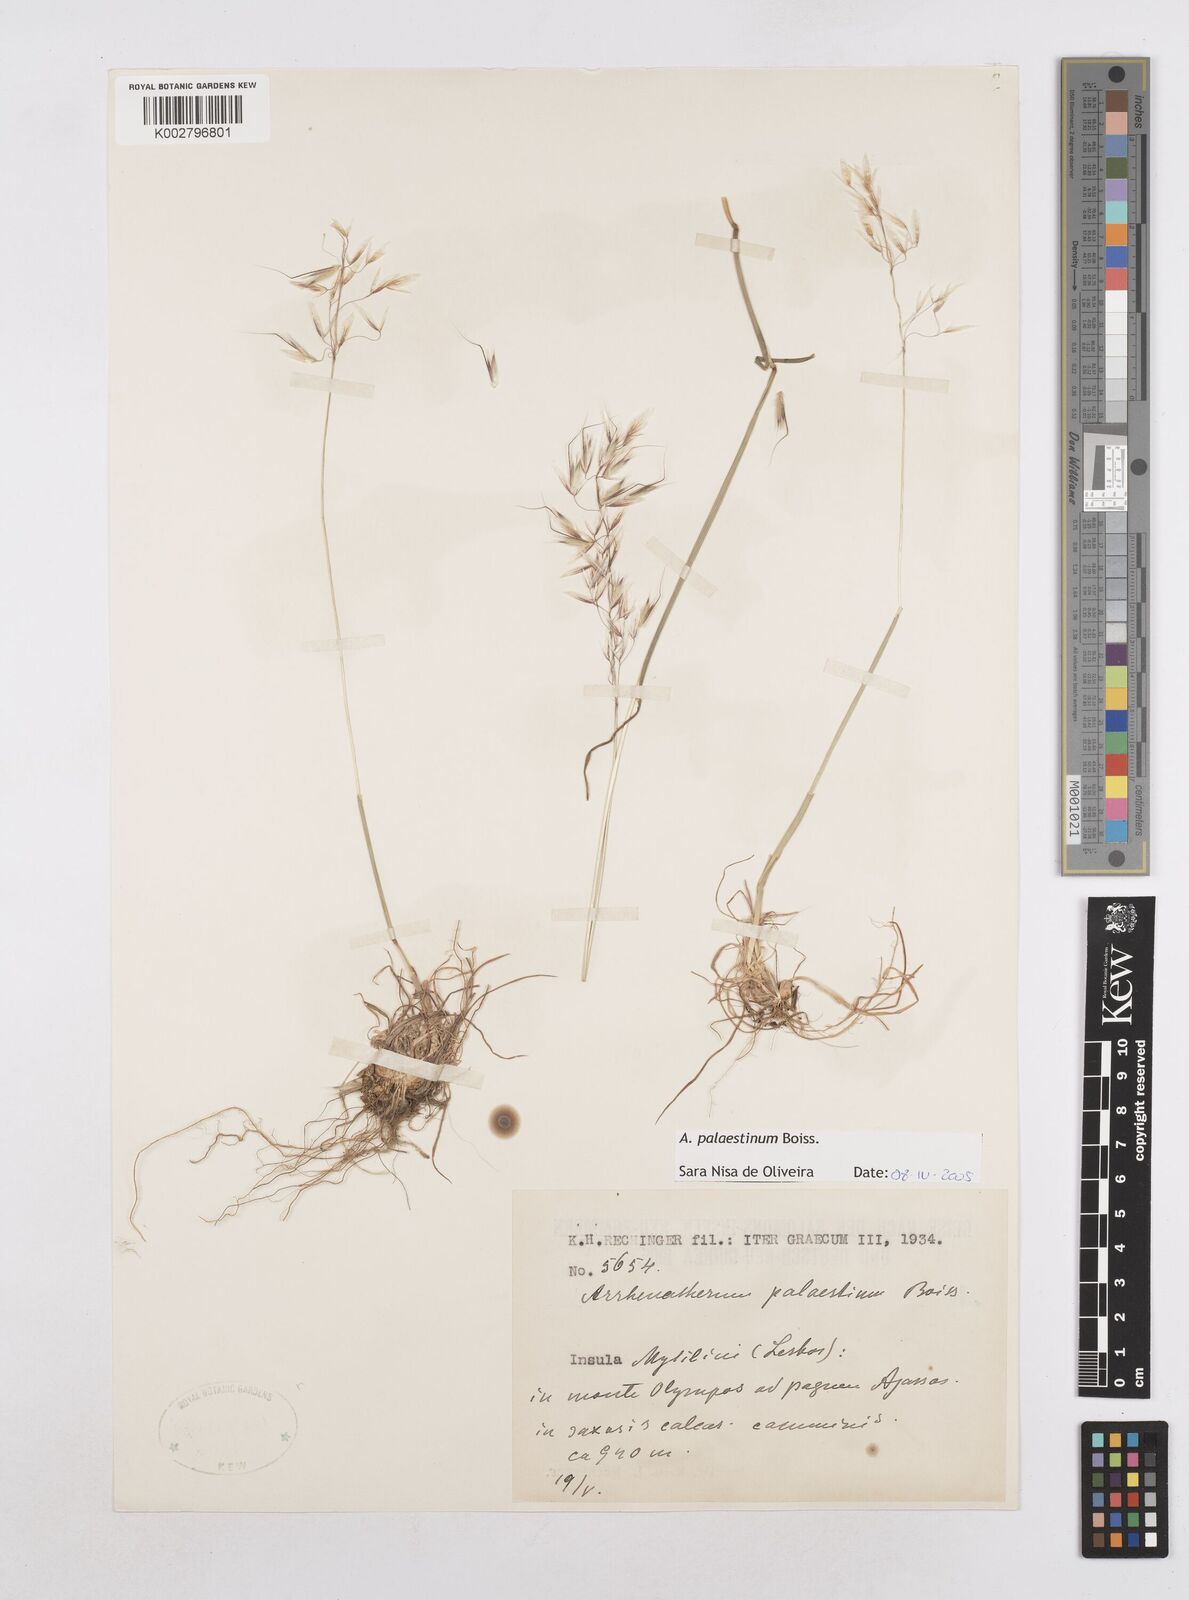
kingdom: Plantae
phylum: Tracheophyta
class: Liliopsida
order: Poales
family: Poaceae
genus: Arrhenatherum
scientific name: Arrhenatherum palaestinum
